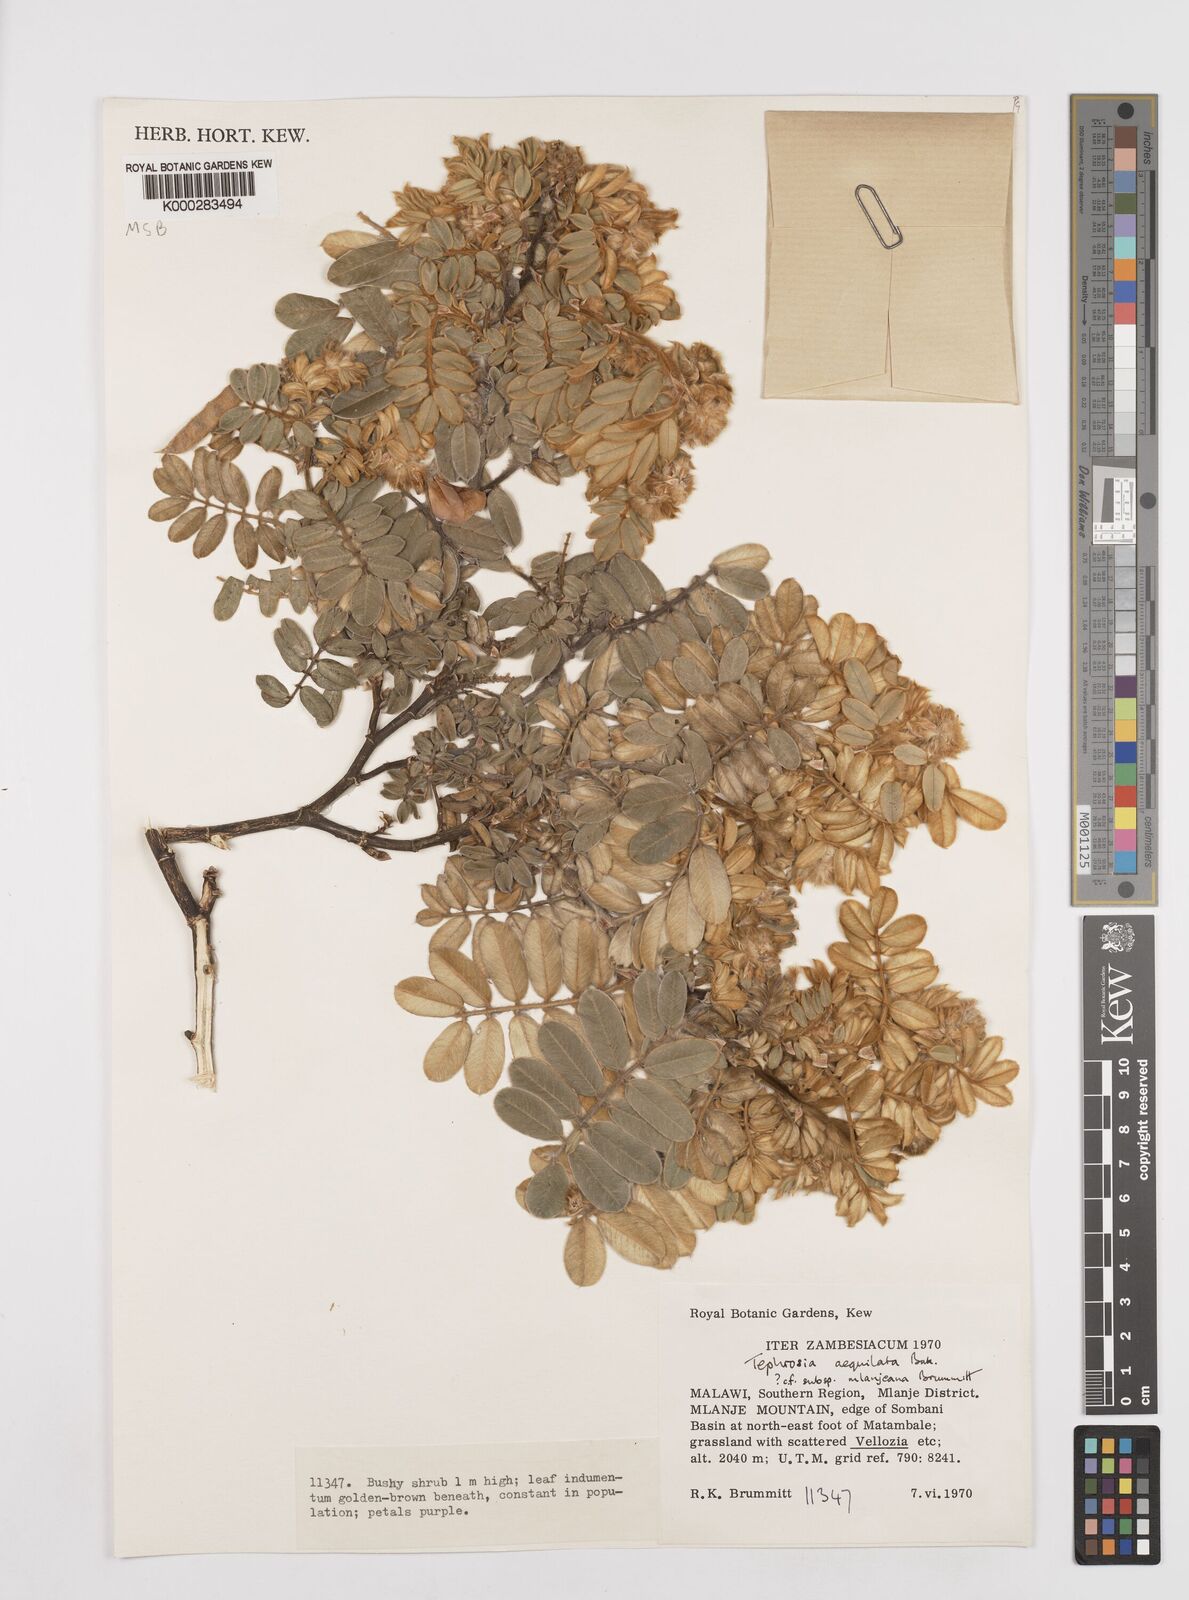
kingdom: Plantae
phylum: Tracheophyta
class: Magnoliopsida
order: Fabales
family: Fabaceae
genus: Tephrosia
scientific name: Tephrosia aequilata
